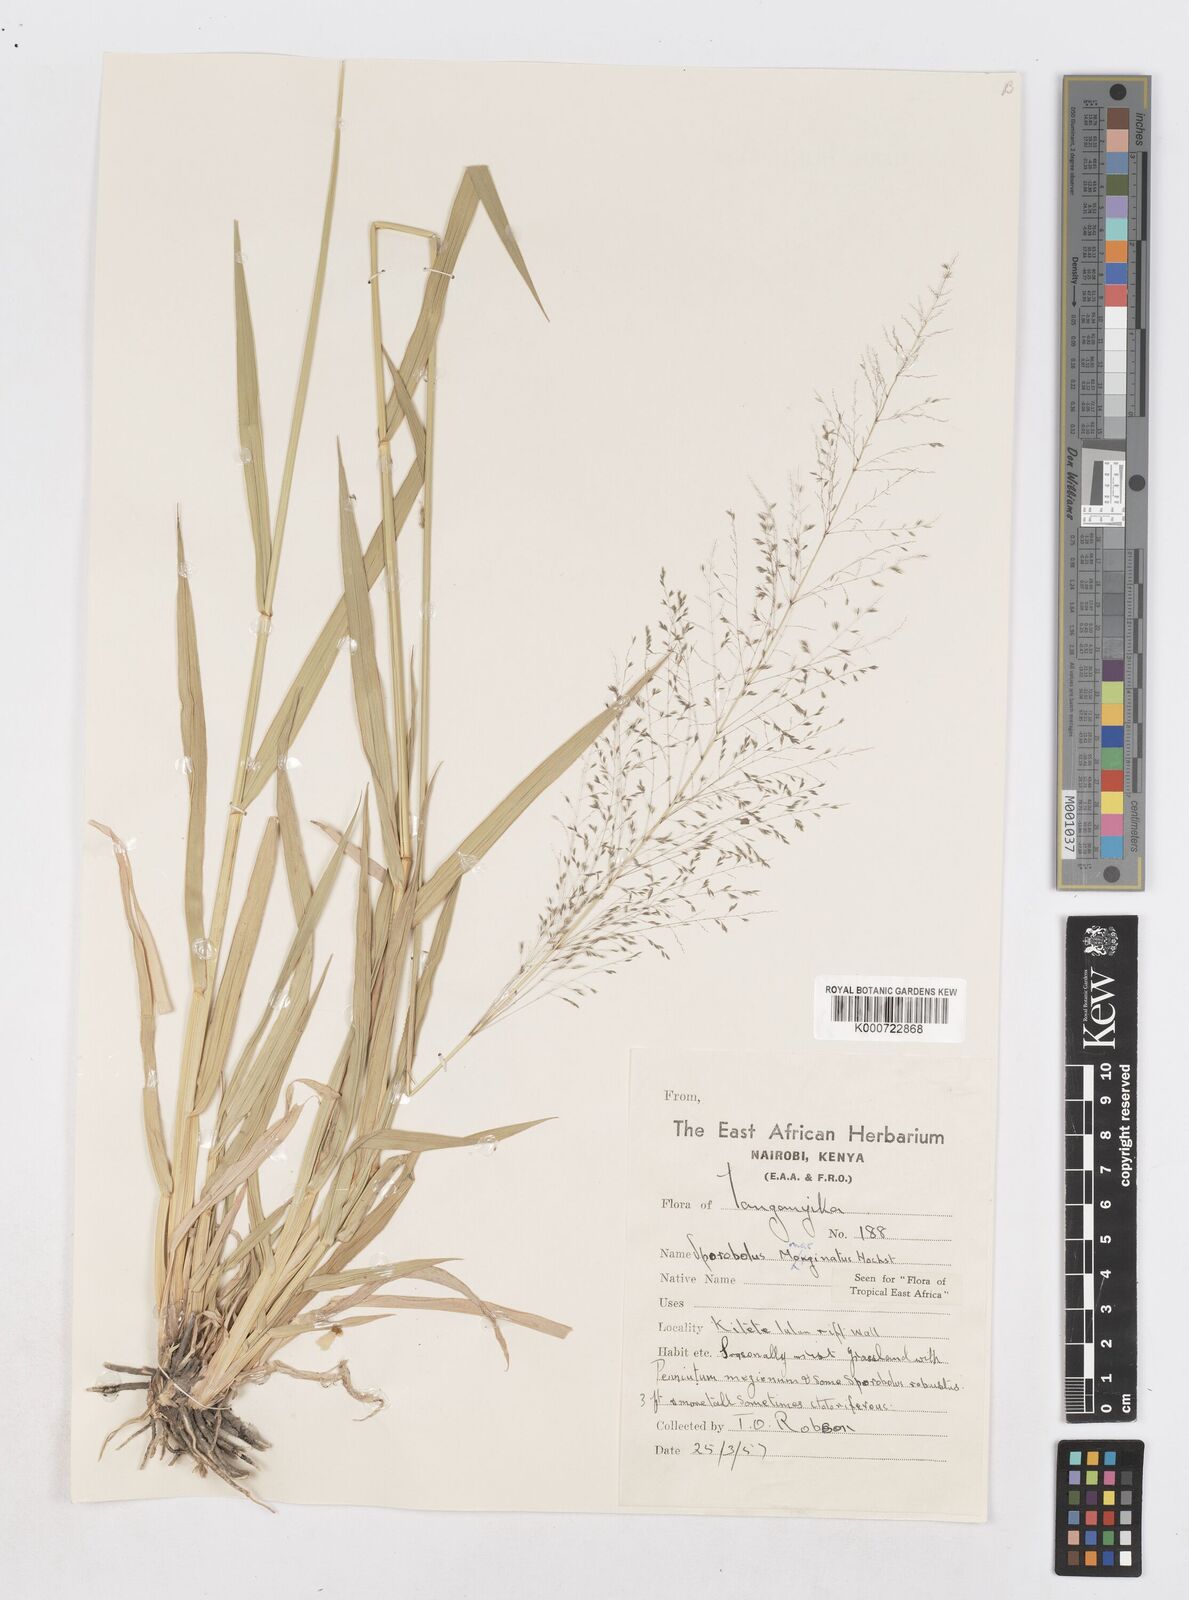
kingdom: Plantae
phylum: Tracheophyta
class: Liliopsida
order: Poales
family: Poaceae
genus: Sporobolus
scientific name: Sporobolus ioclados
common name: Pan dropseed
